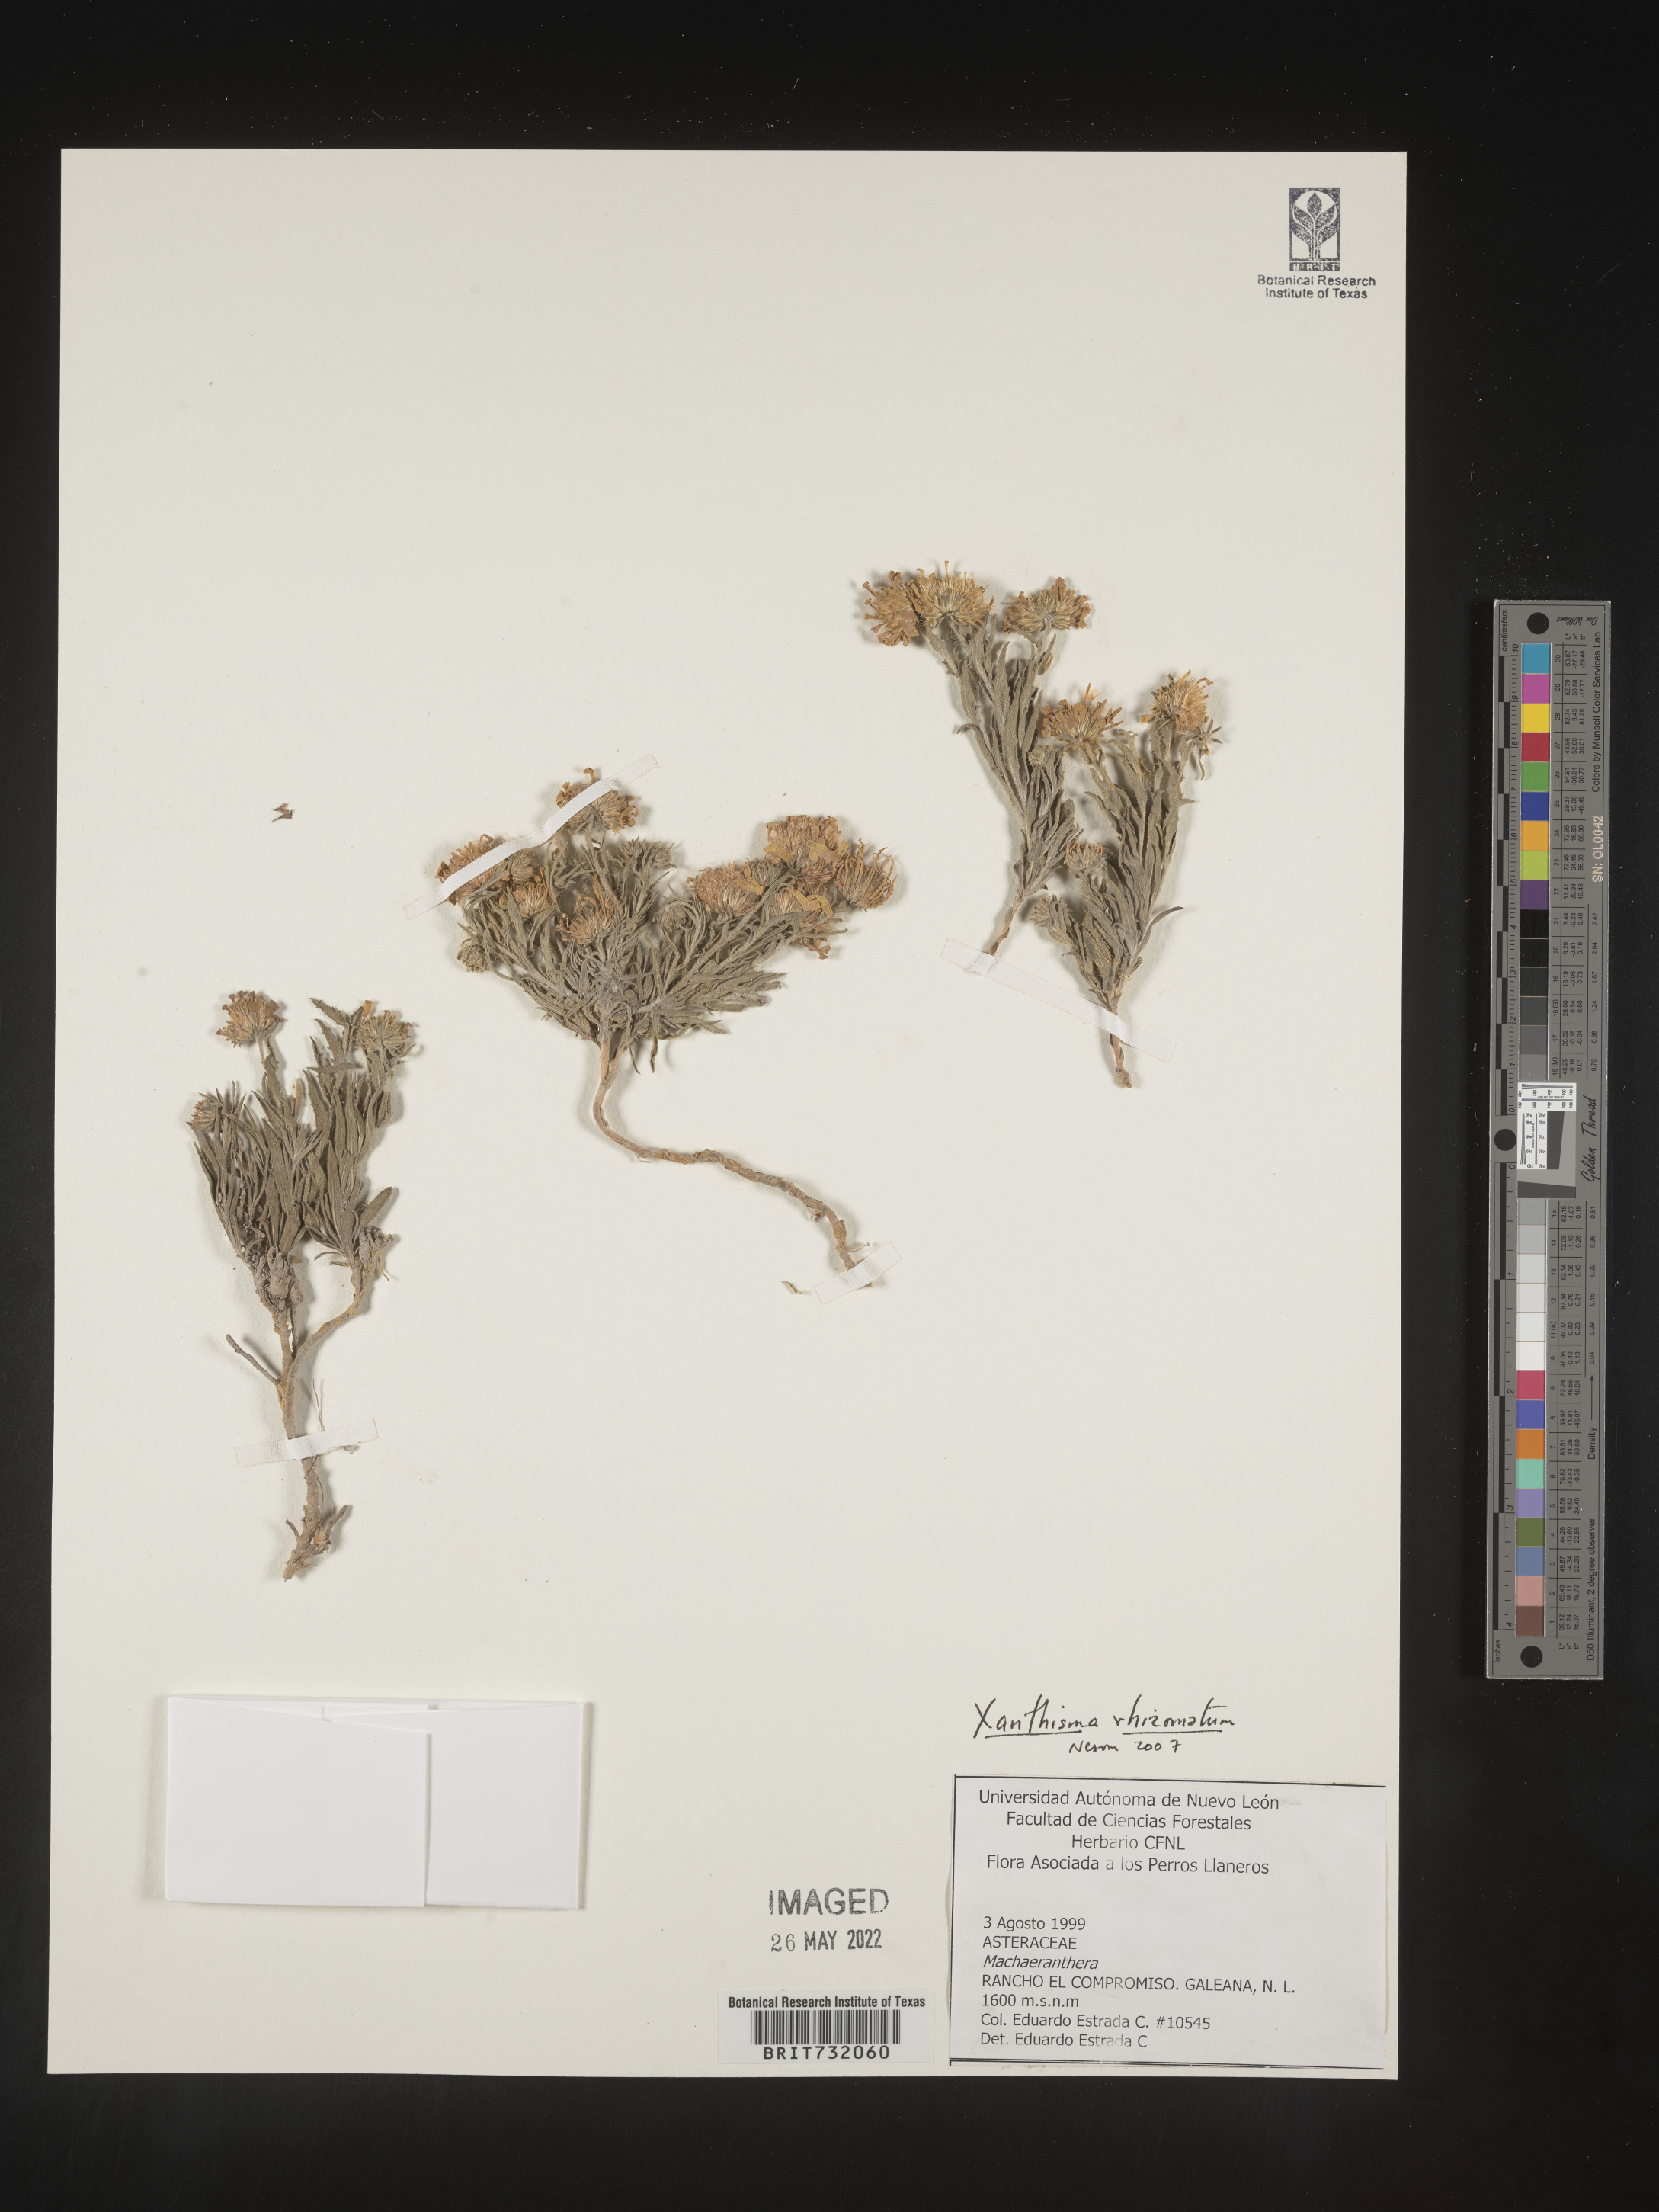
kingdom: Plantae
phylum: Tracheophyta
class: Magnoliopsida
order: Asterales
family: Asteraceae
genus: Xanthisma
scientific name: Xanthisma rhizomatum
